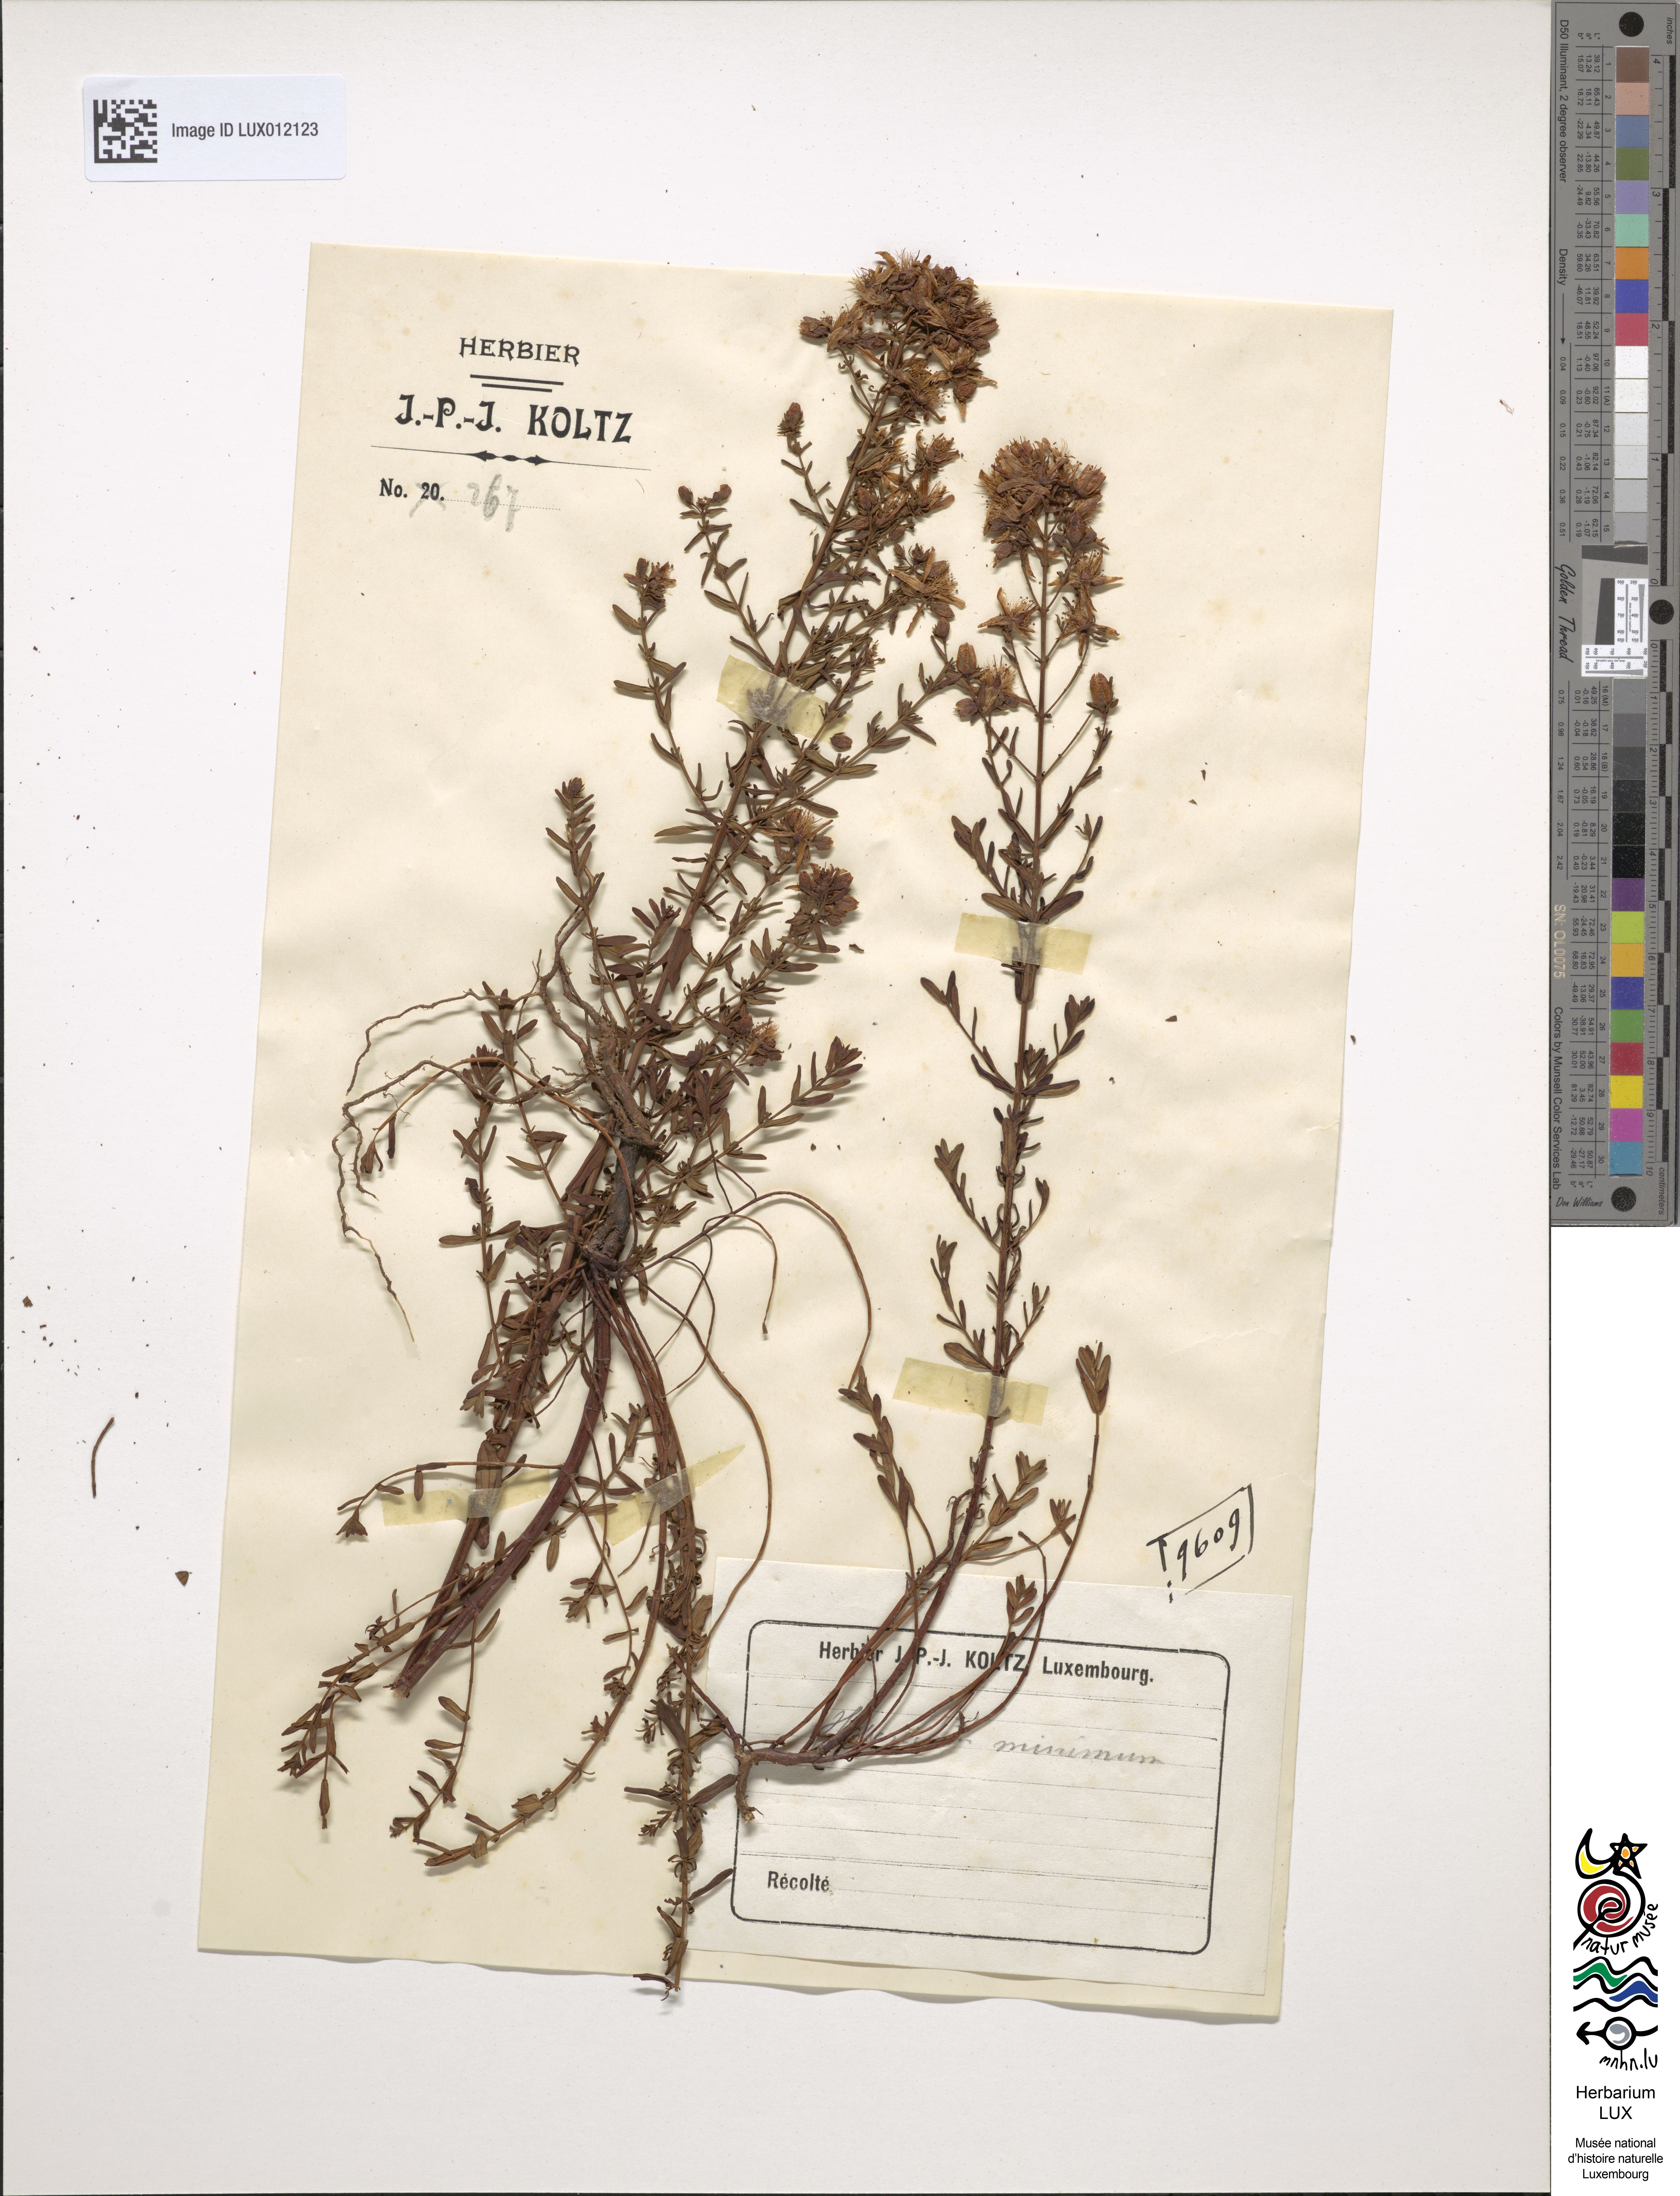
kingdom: Plantae
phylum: Tracheophyta
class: Magnoliopsida
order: Malpighiales
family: Hypericaceae
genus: Hypericum
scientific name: Hypericum minutum
